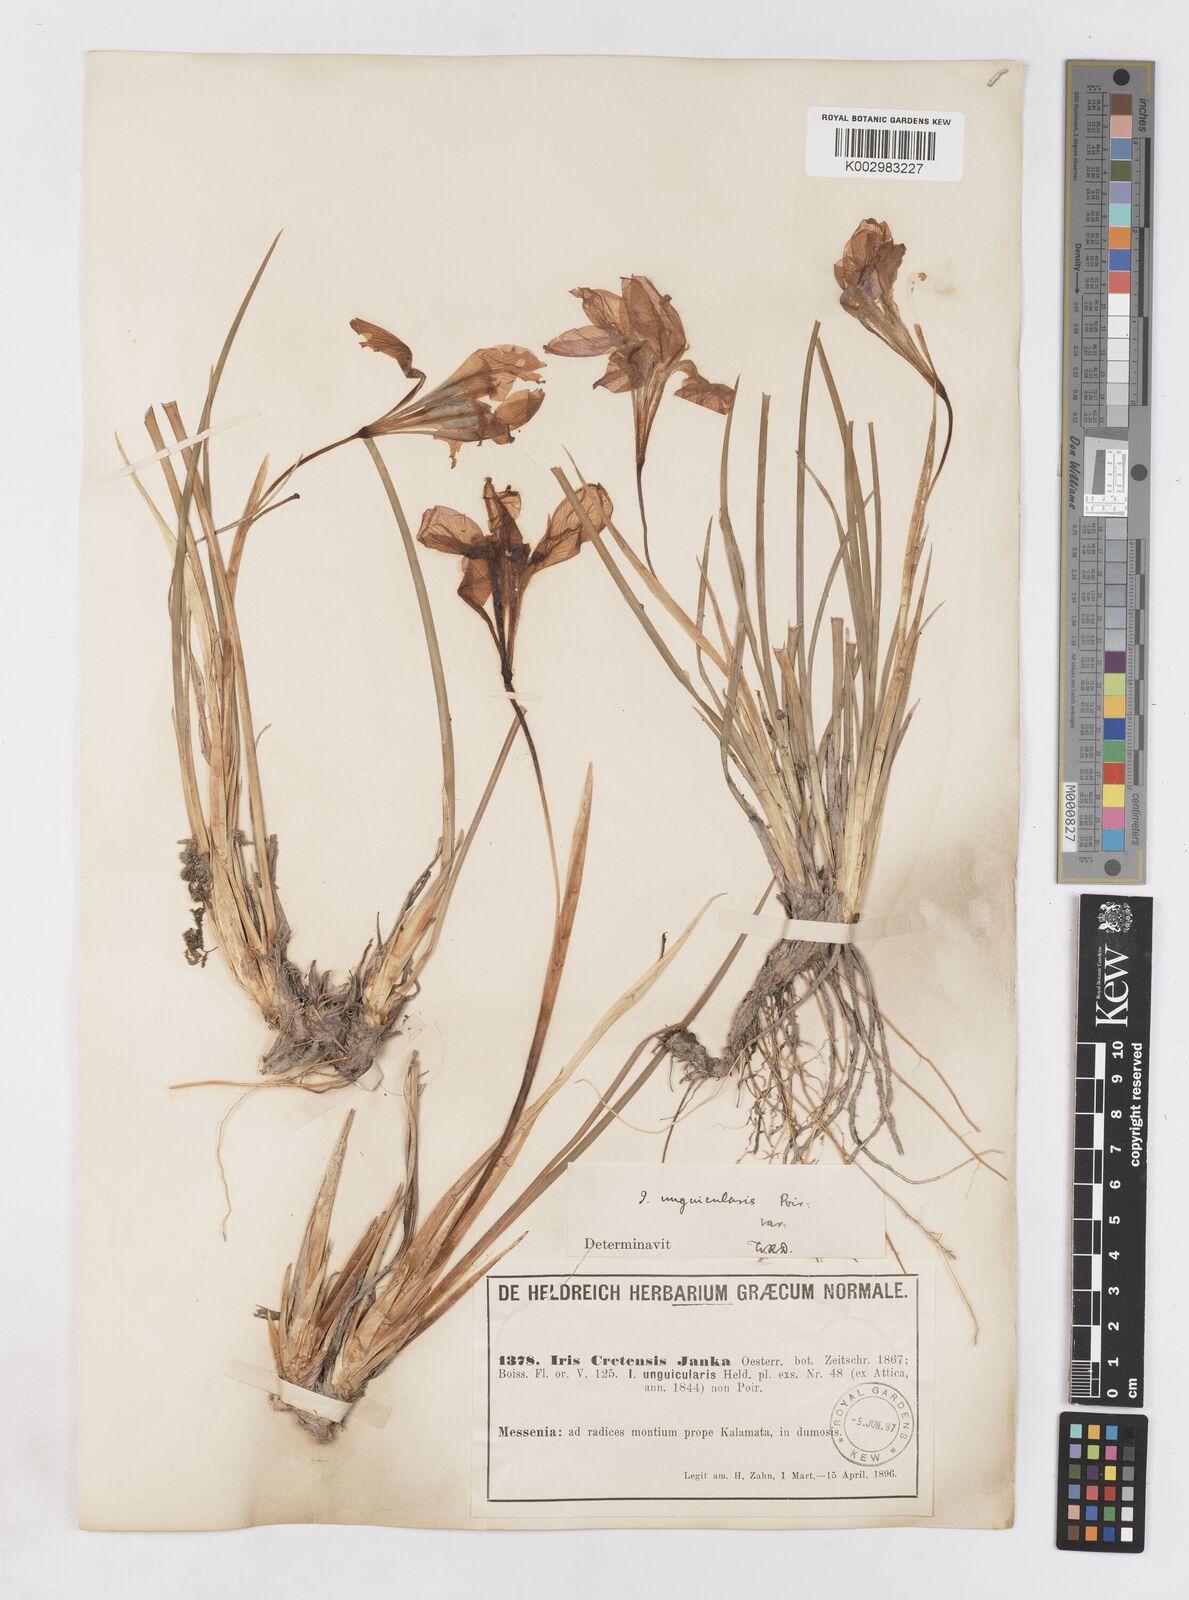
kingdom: Plantae
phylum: Tracheophyta
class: Liliopsida
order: Asparagales
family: Iridaceae
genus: Iris
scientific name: Iris unguicularis
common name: Algerian iris
